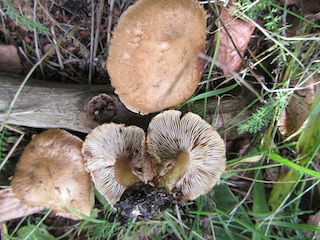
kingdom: Fungi
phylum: Basidiomycota
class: Agaricomycetes
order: Agaricales
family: Inocybaceae
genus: Inocybe
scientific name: Inocybe melanopoda
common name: sortfodet trævlhat
